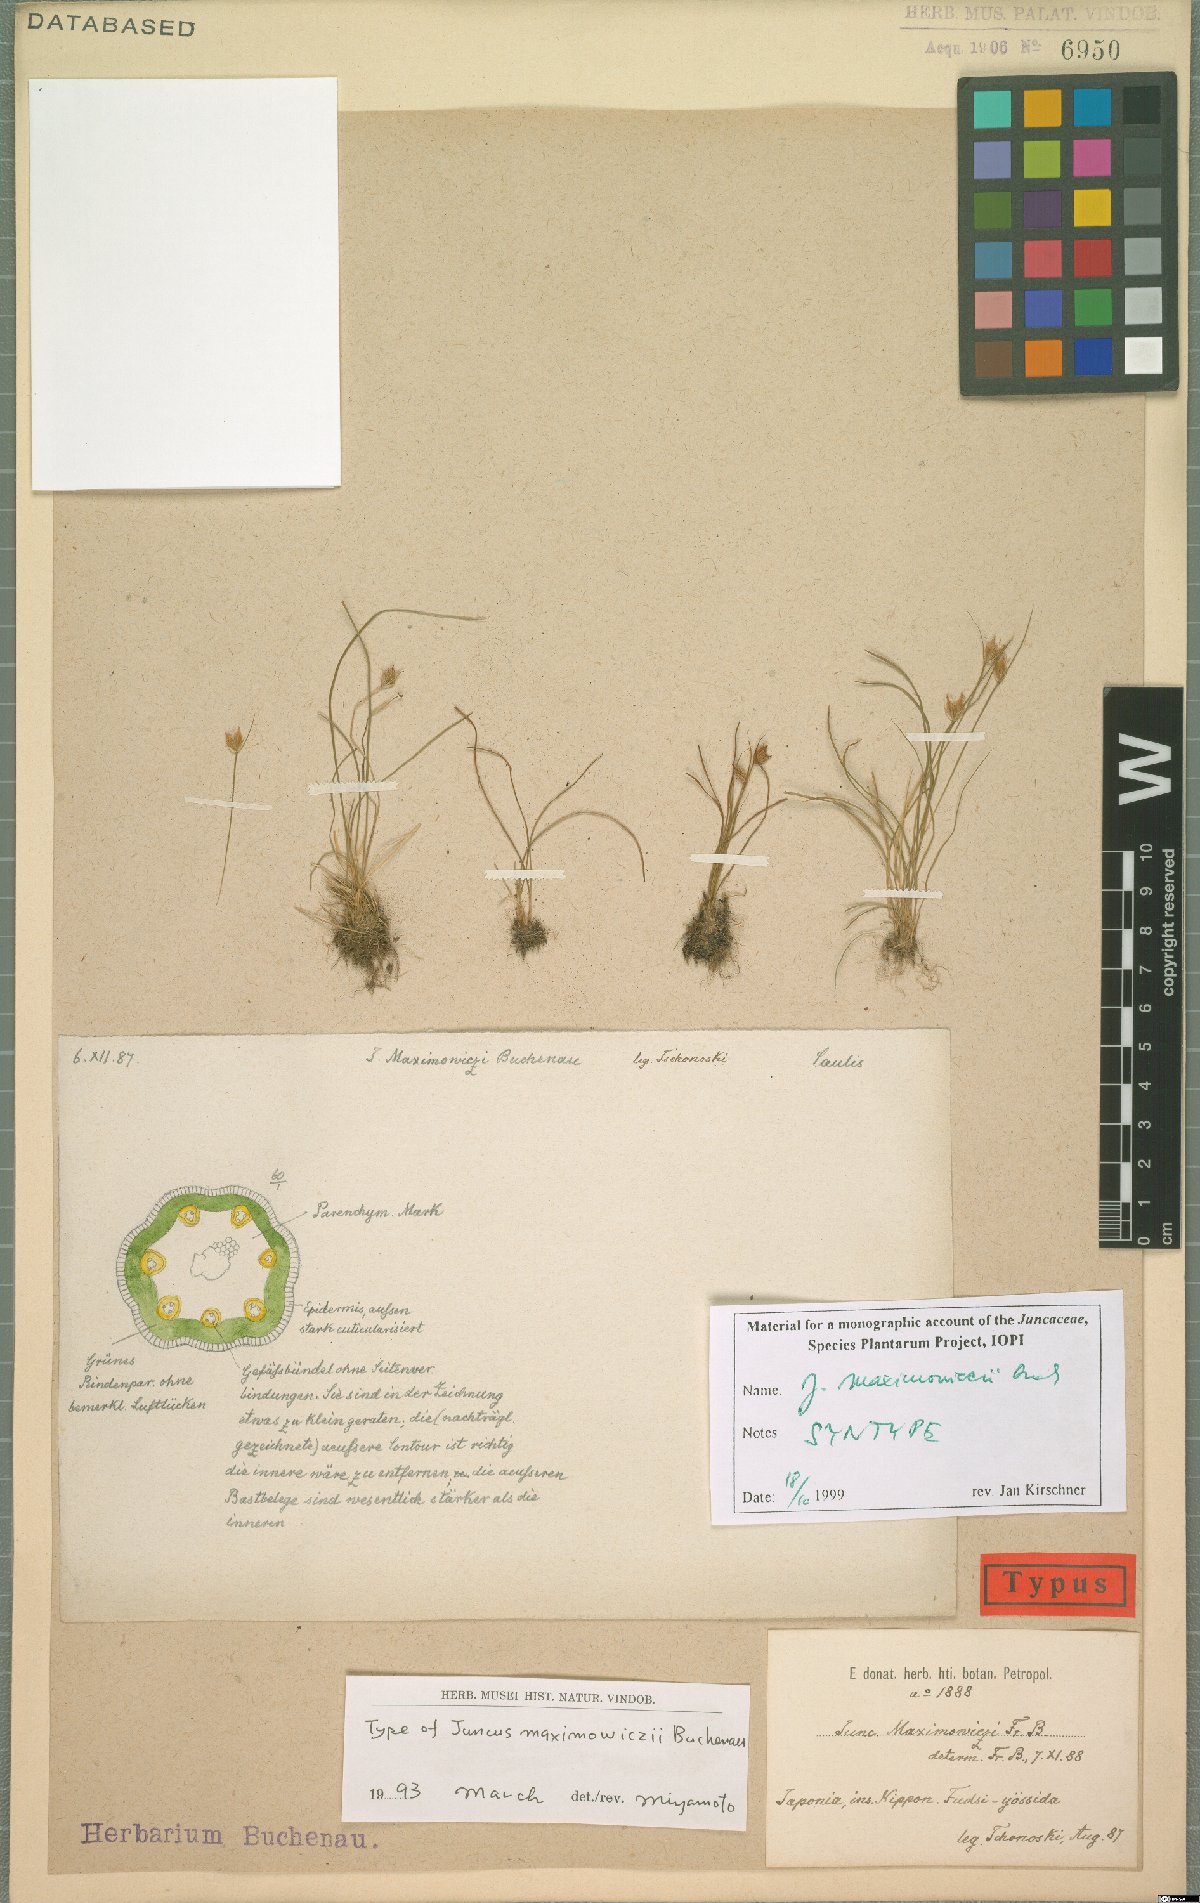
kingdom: Plantae
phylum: Tracheophyta
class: Liliopsida
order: Poales
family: Juncaceae
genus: Juncus
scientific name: Juncus maximowiczii
